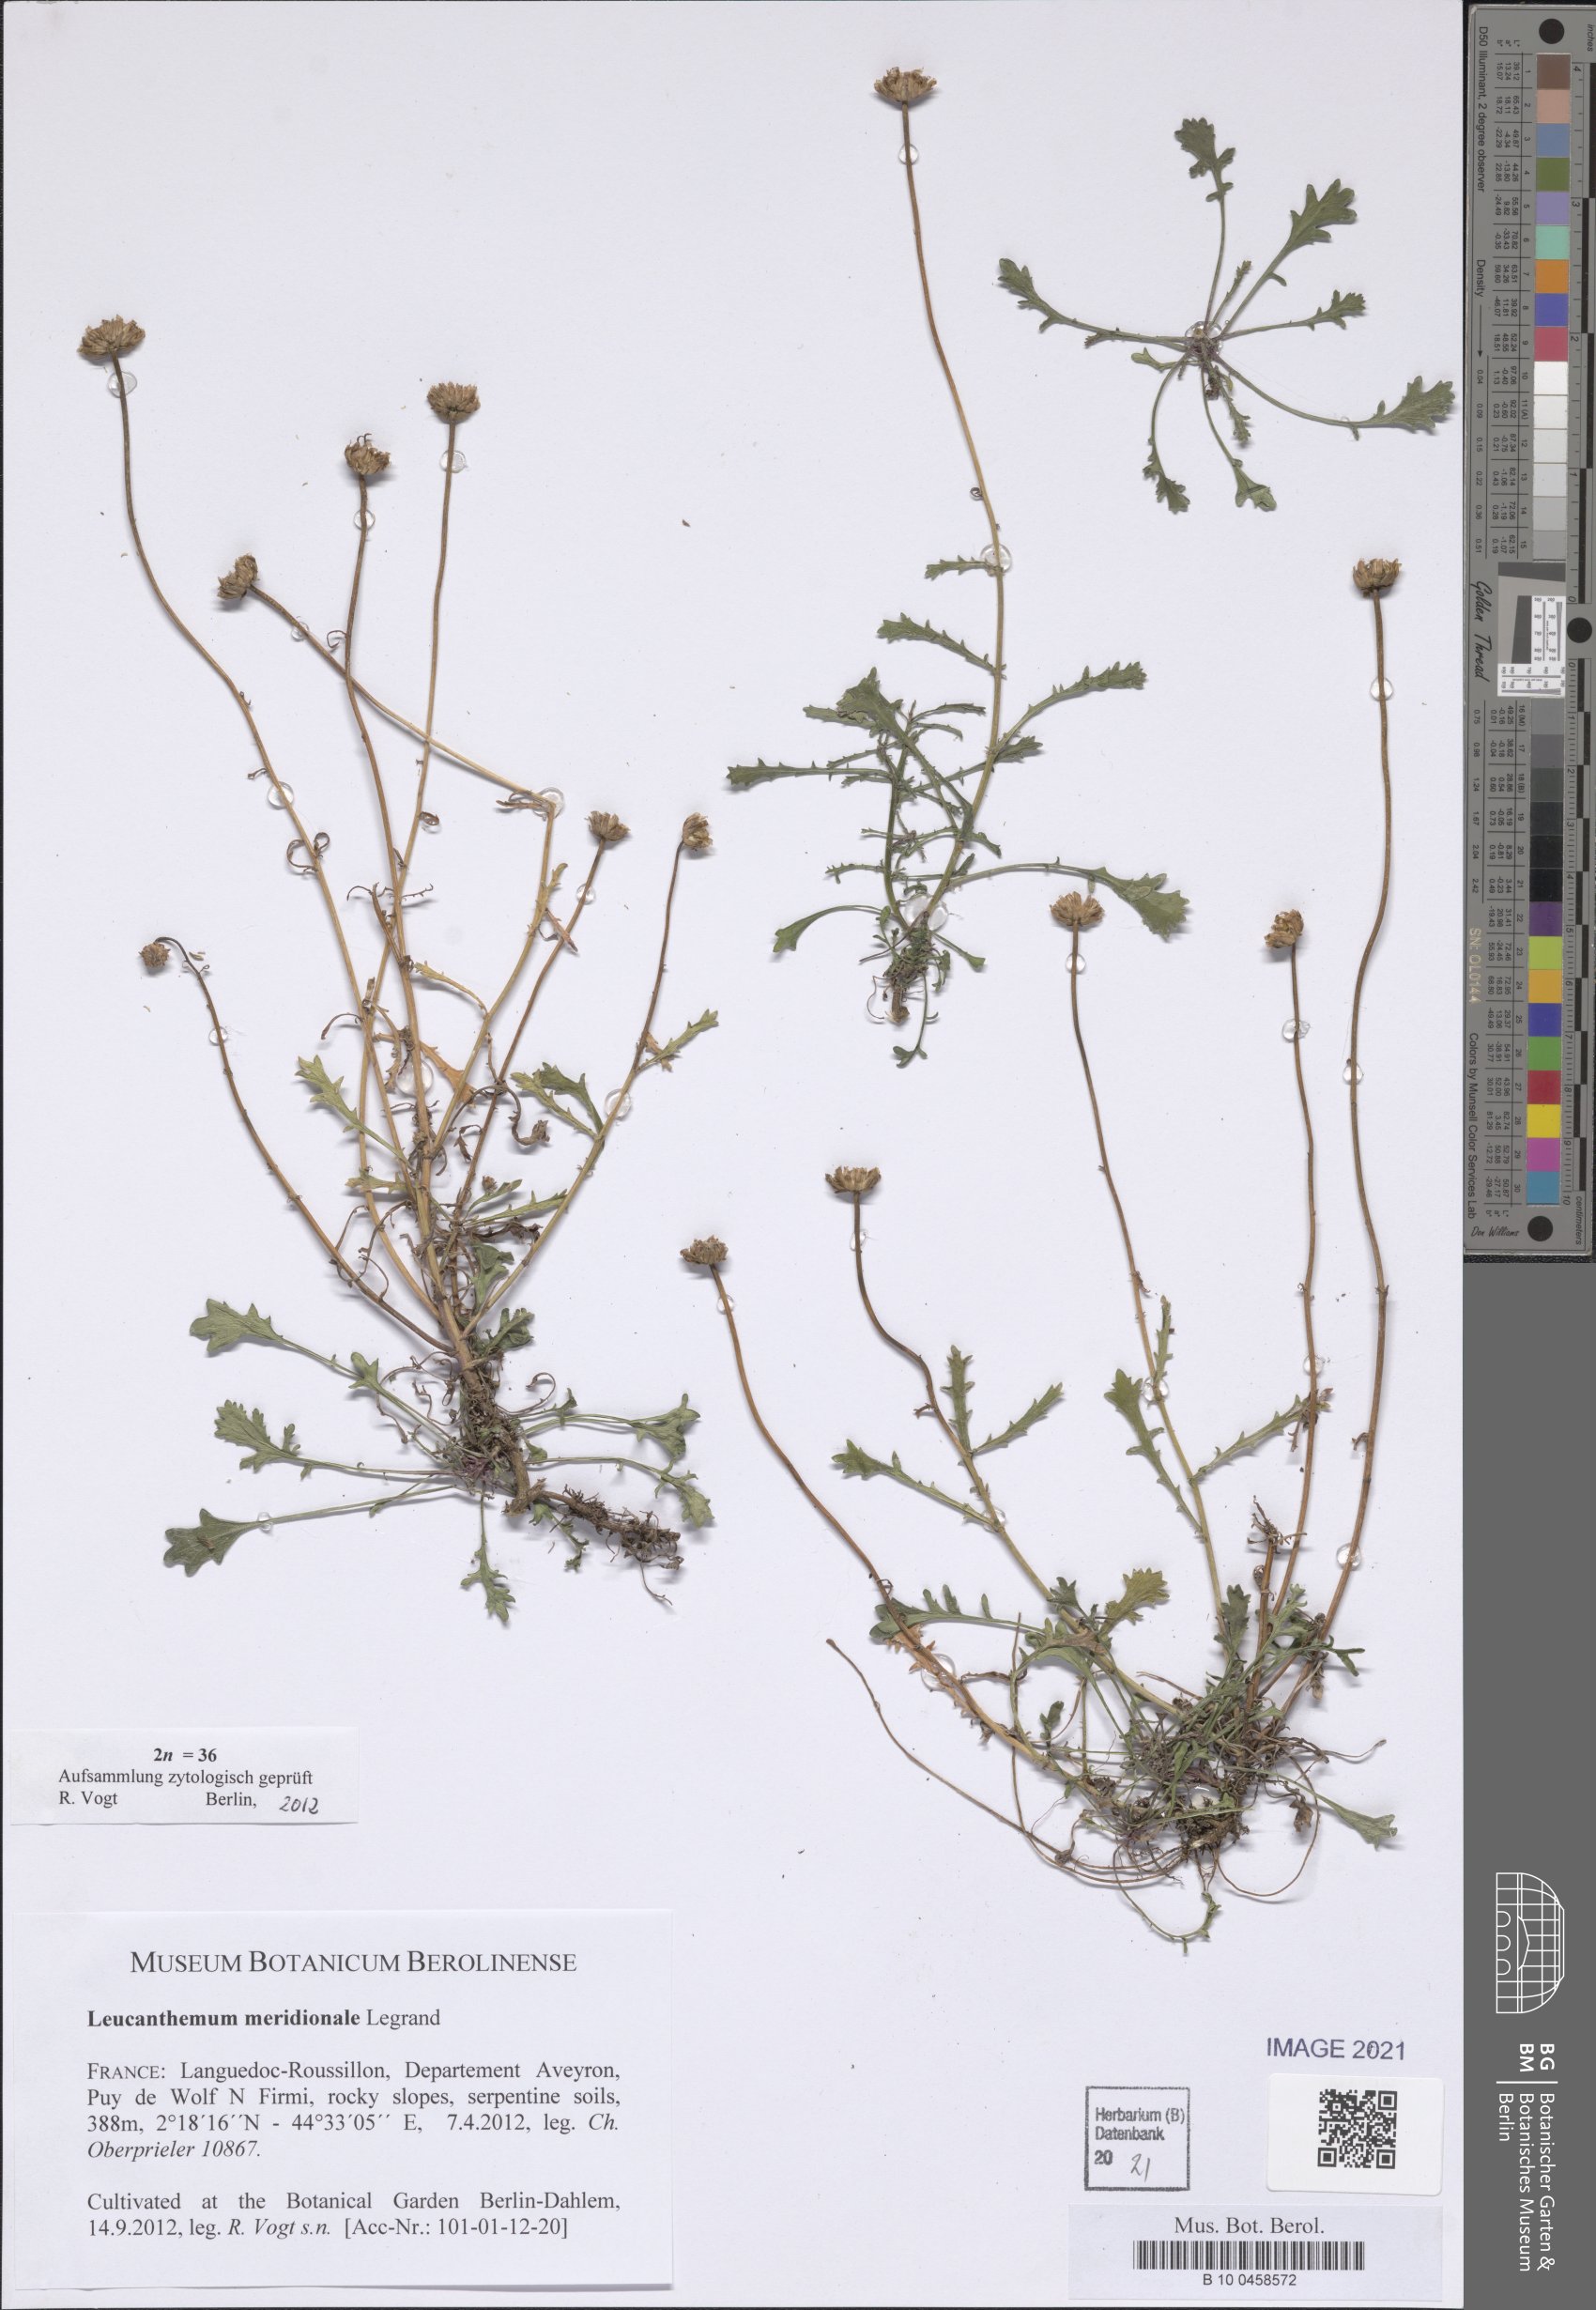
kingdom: Plantae
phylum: Tracheophyta
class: Magnoliopsida
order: Asterales
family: Asteraceae
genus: Leucanthemum
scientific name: Leucanthemum meridionale
